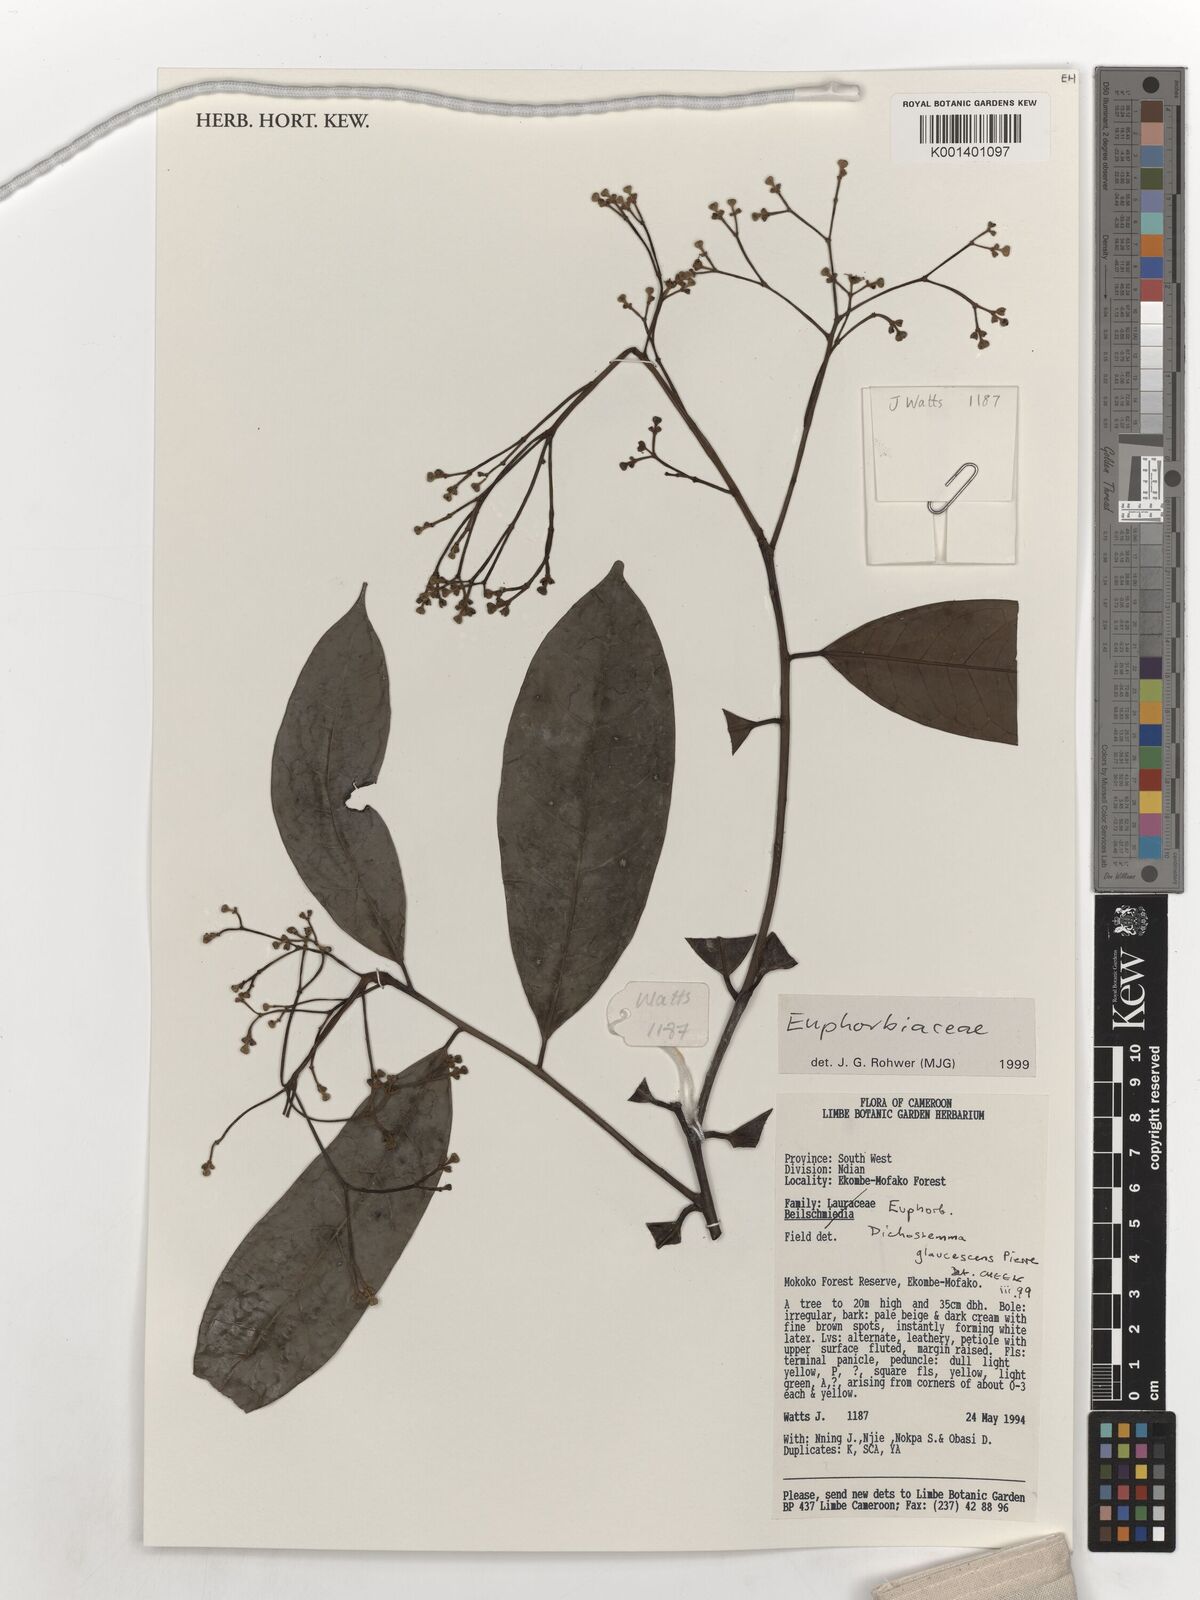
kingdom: Plantae
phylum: Tracheophyta
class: Magnoliopsida
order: Malpighiales
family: Euphorbiaceae
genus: Dichostemma
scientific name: Dichostemma glaucescens
